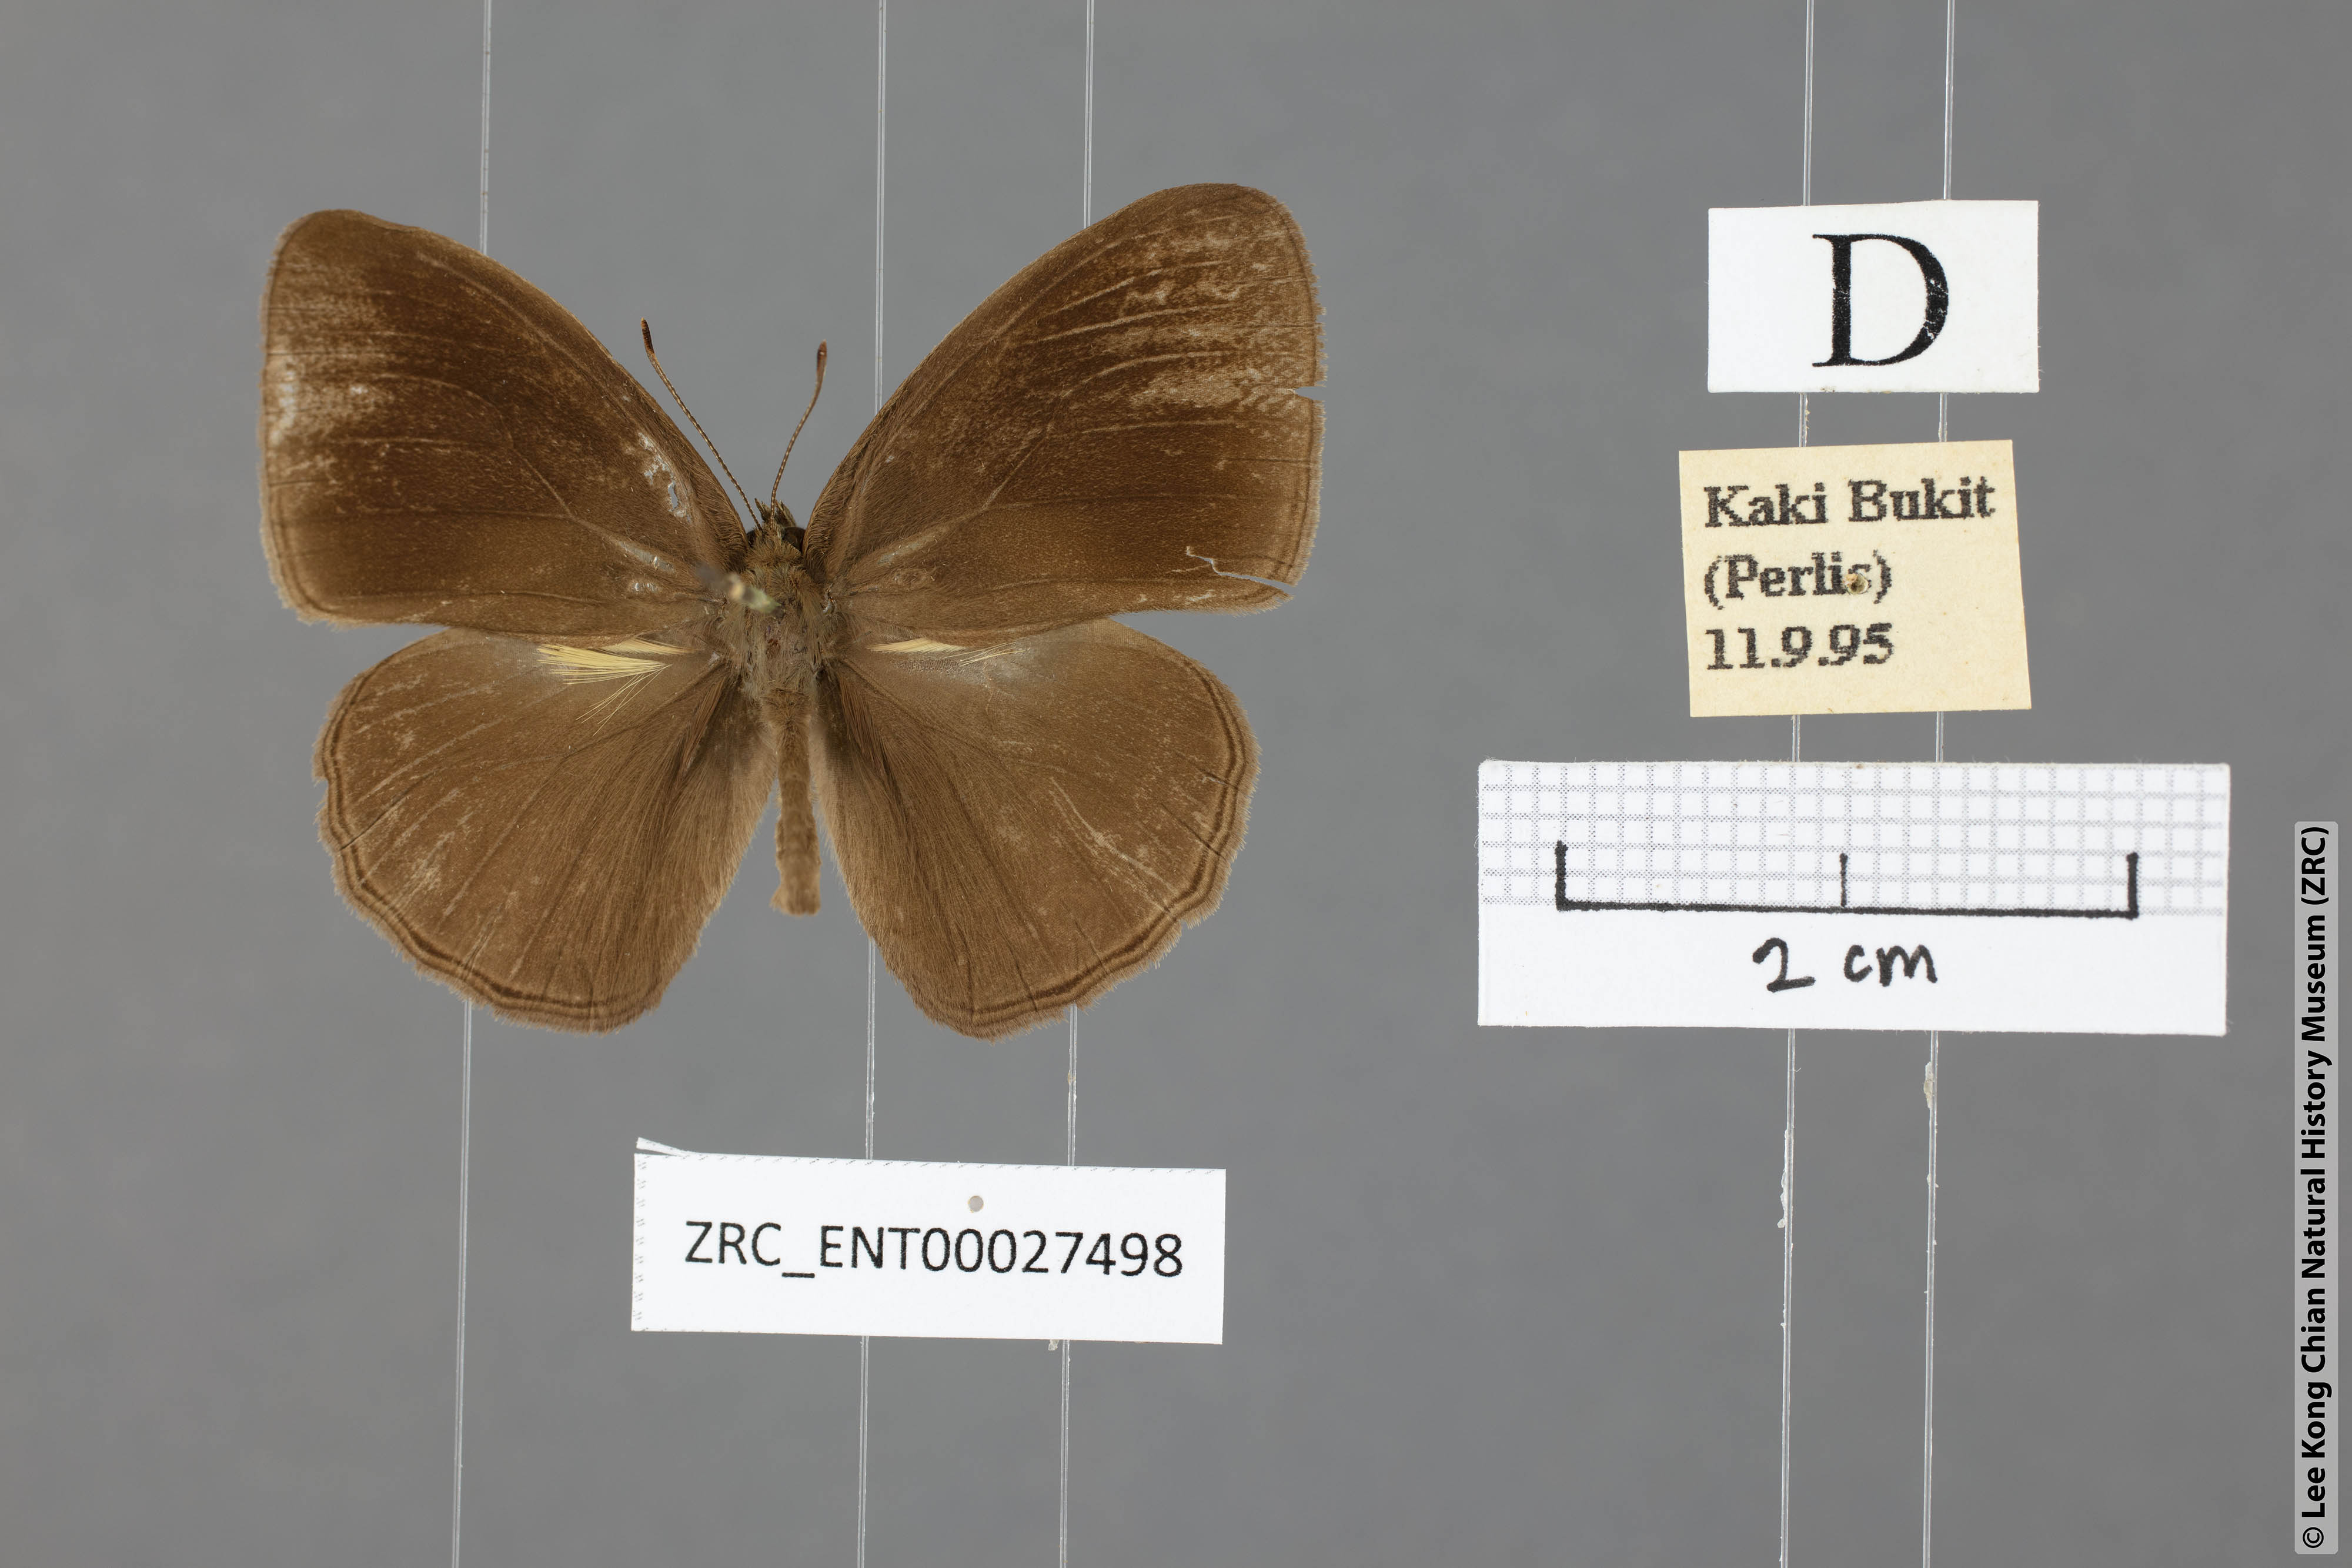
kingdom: Animalia
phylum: Arthropoda
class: Insecta
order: Lepidoptera
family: Nymphalidae
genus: Mycalesis
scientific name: Mycalesis janardana
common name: Common bush brown
